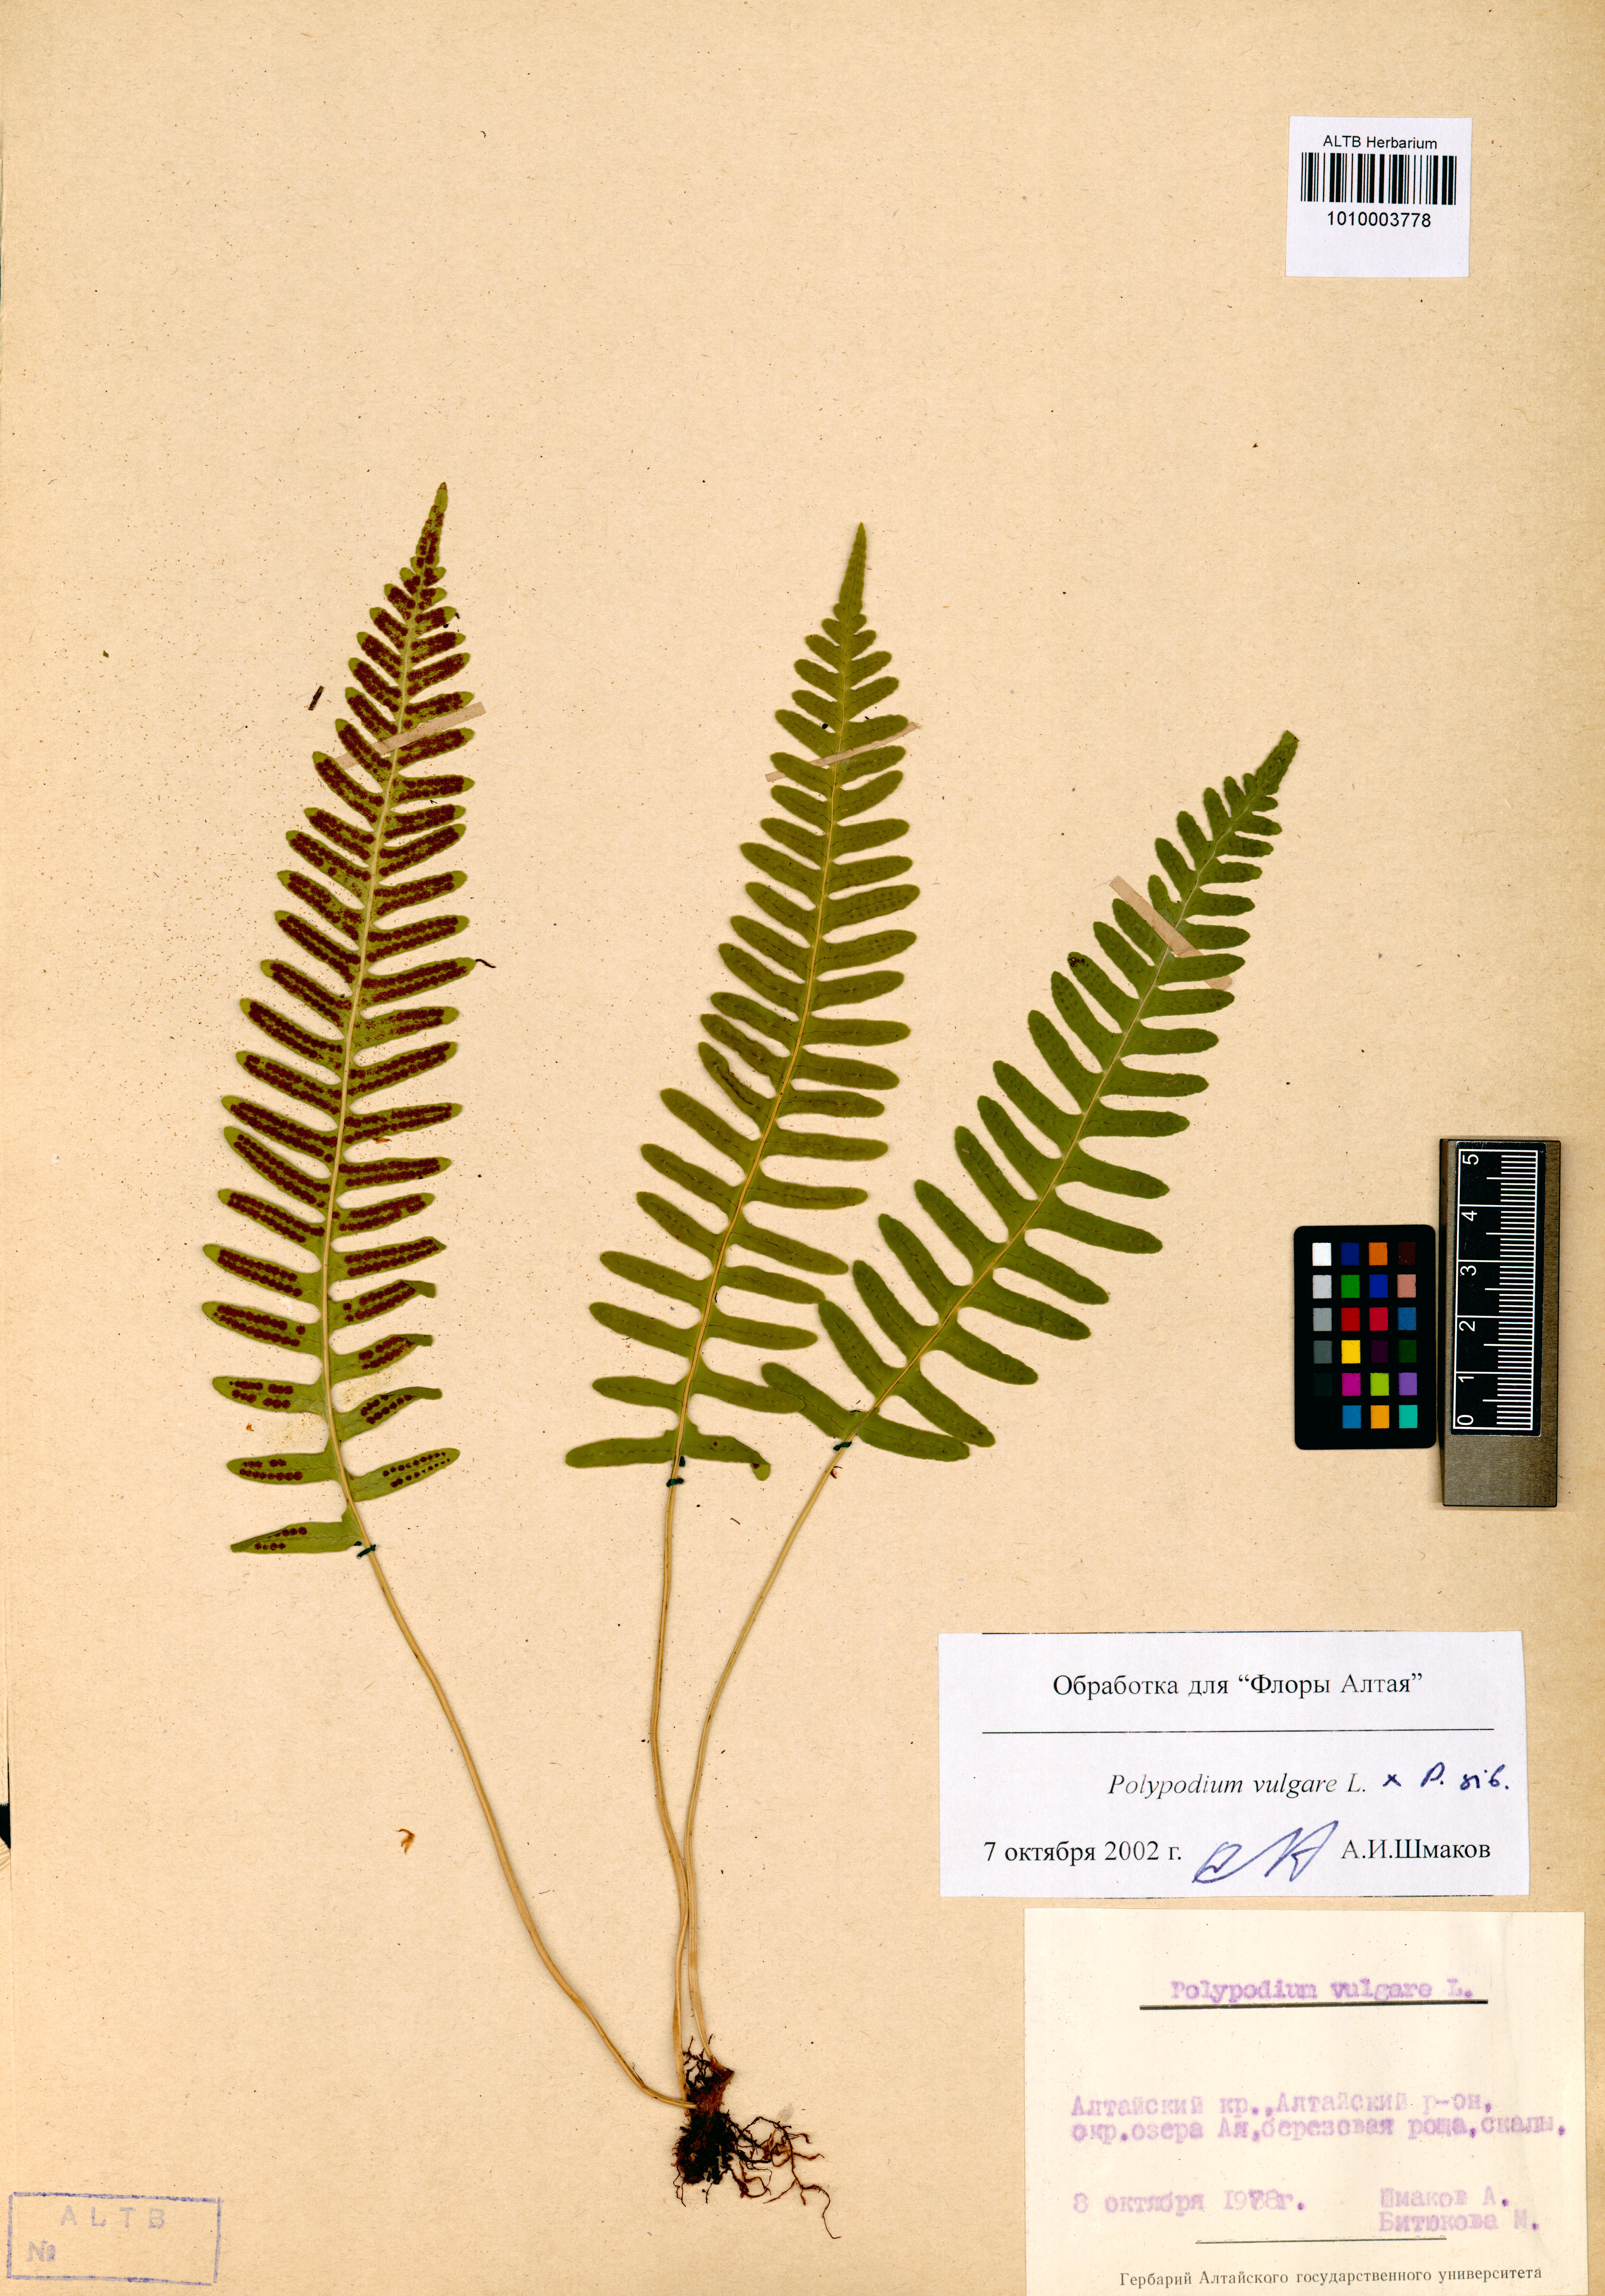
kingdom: Plantae
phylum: Tracheophyta
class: Polypodiopsida
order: Polypodiales
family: Polypodiaceae
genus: Polypodium
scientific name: Polypodium vulgare
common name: Common polypody
